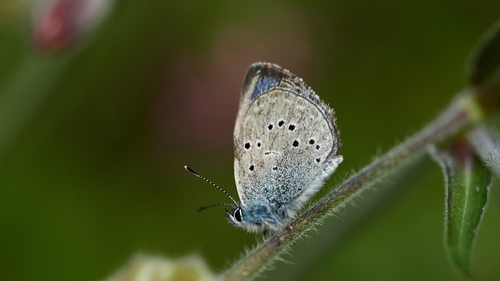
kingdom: Animalia
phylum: Arthropoda
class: Insecta
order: Lepidoptera
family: Lycaenidae
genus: Glaucopsyche
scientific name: Glaucopsyche melanops
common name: Black-eyed blue
